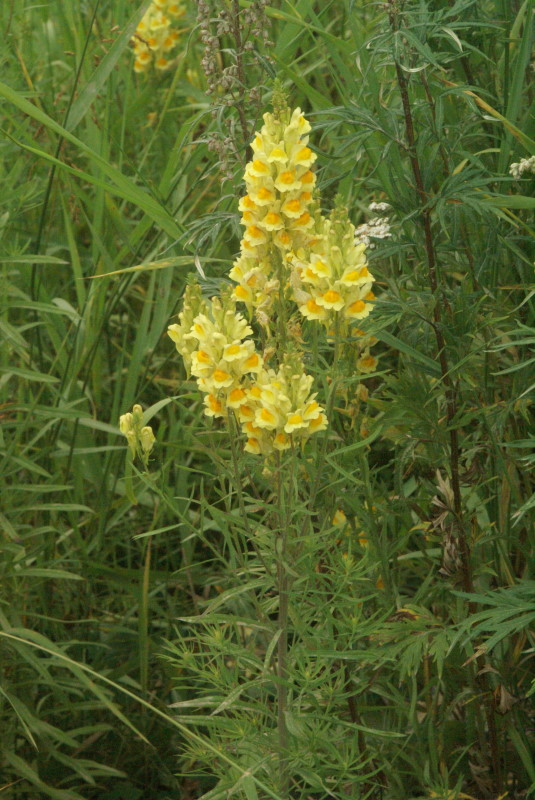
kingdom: Plantae
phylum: Tracheophyta
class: Magnoliopsida
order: Lamiales
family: Plantaginaceae
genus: Linaria
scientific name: Linaria vulgaris
